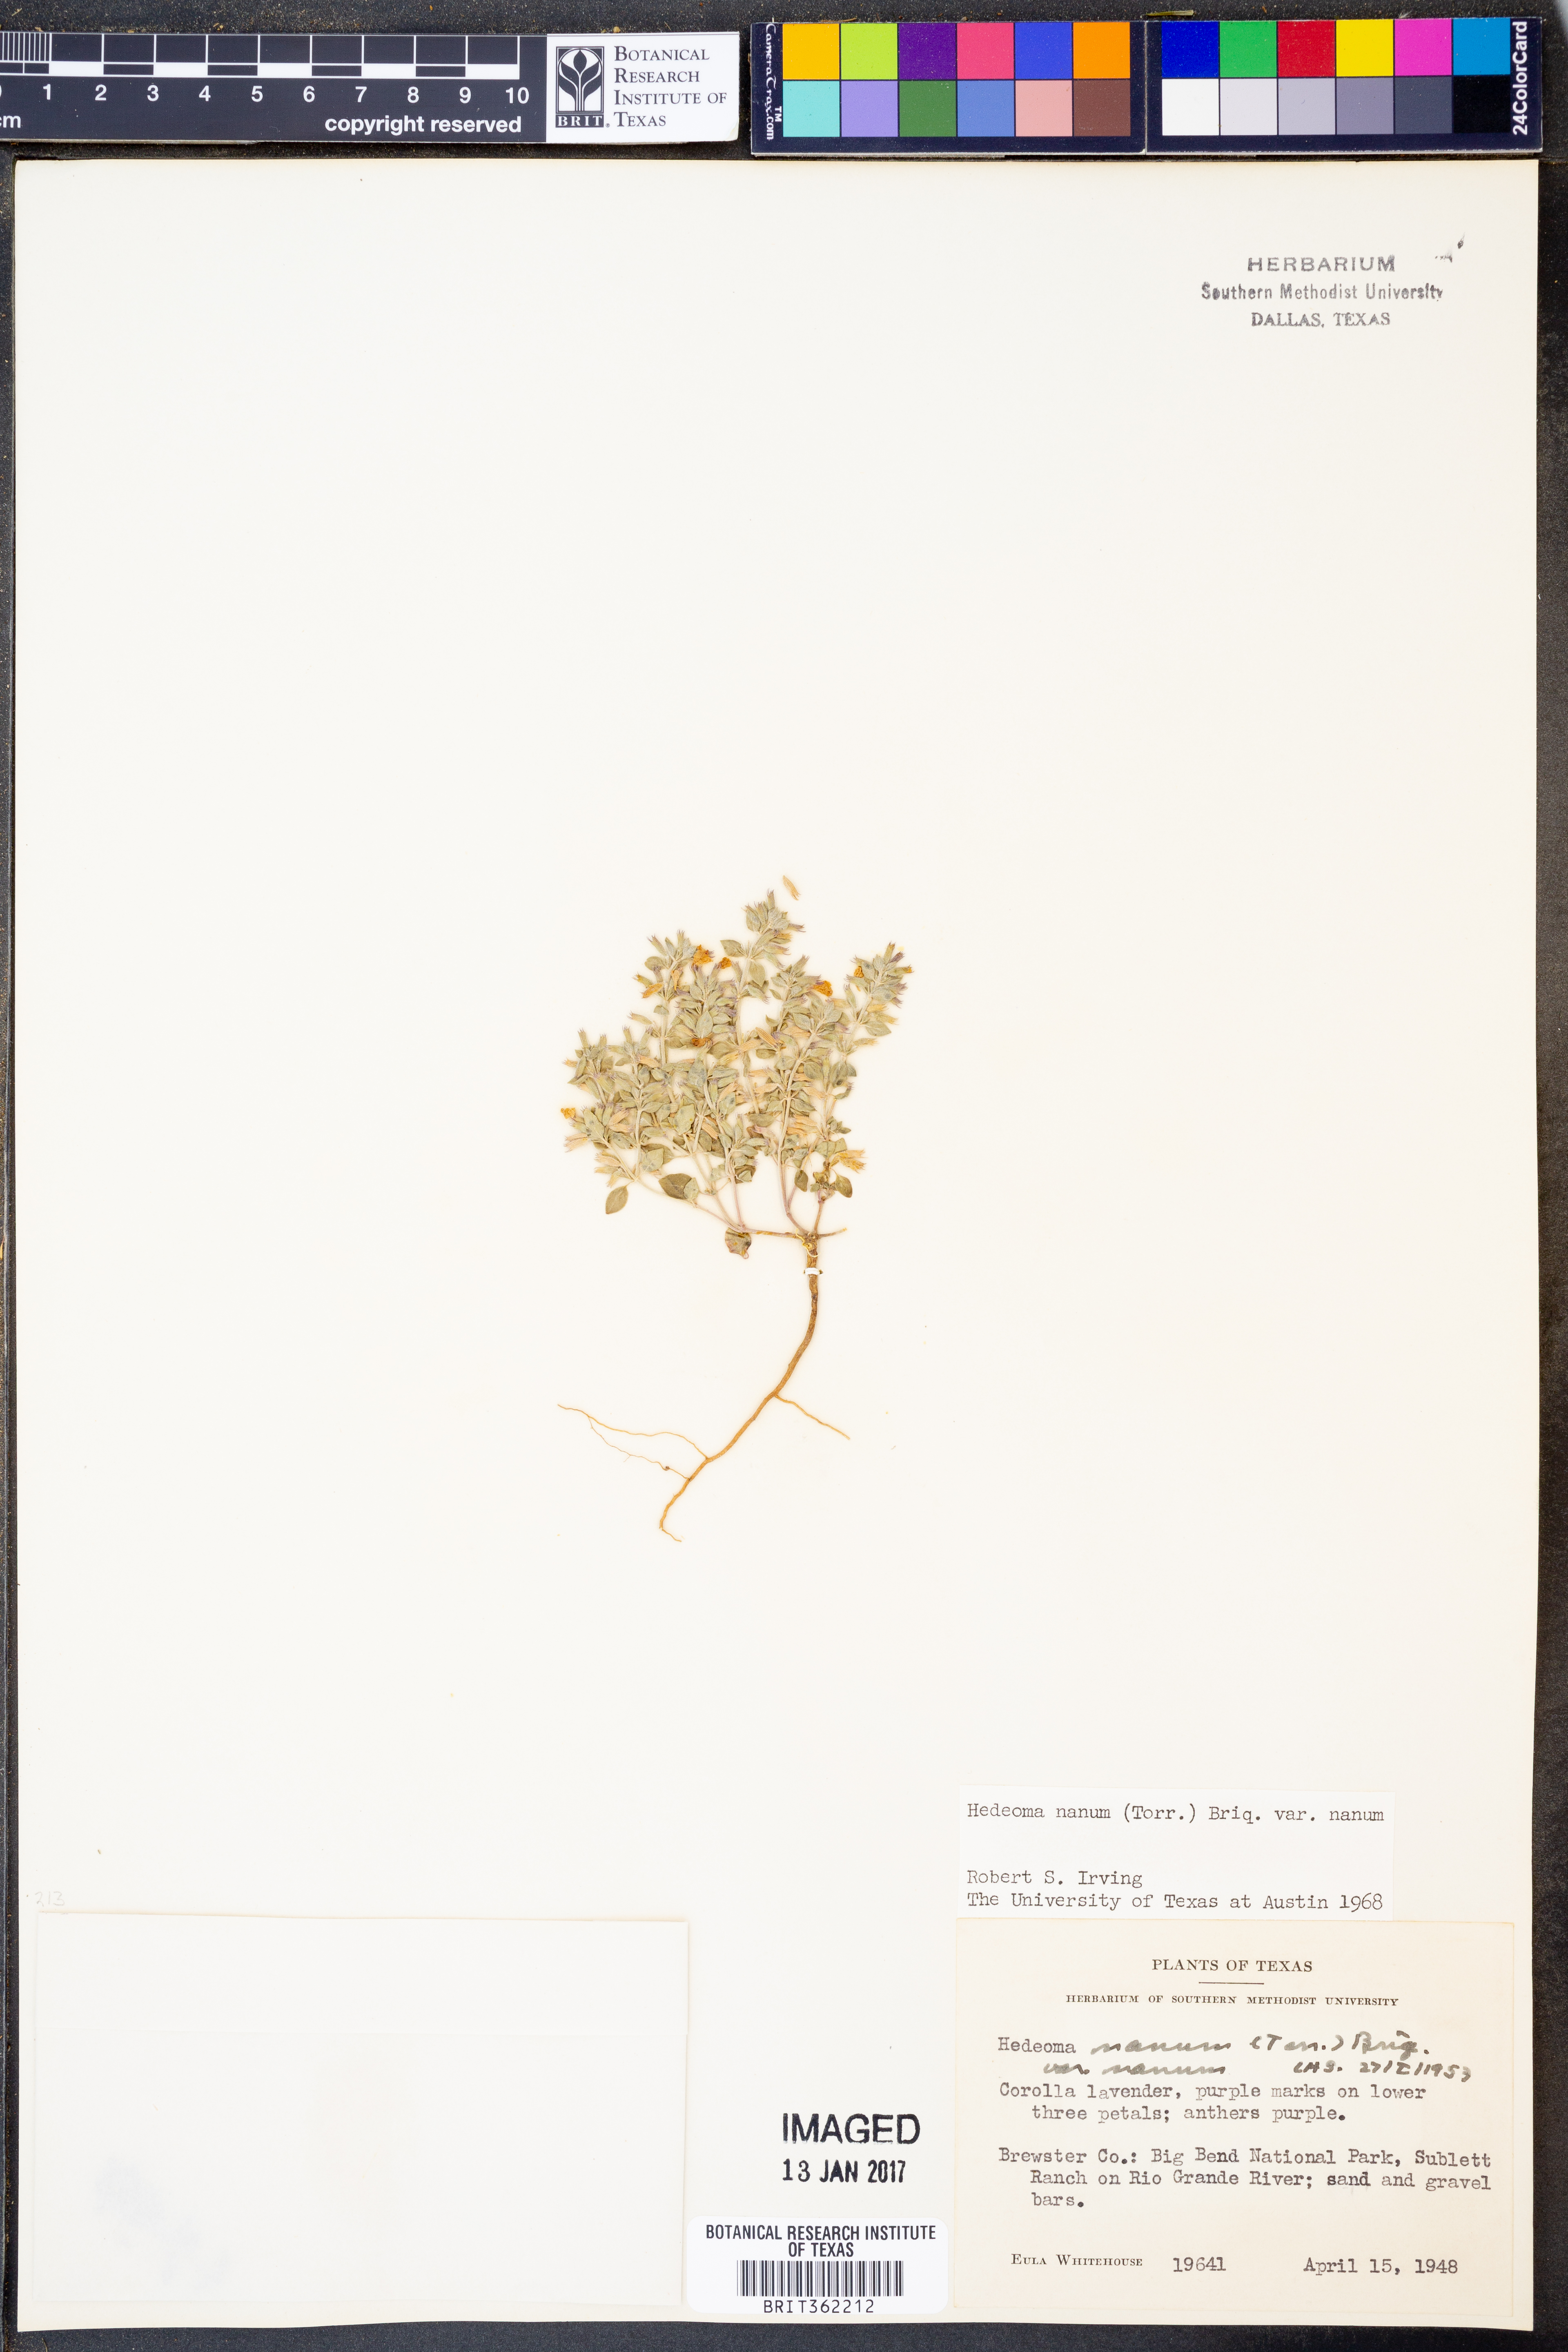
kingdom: Plantae
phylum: Tracheophyta
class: Magnoliopsida
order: Lamiales
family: Lamiaceae
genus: Hedeoma
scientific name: Hedeoma nana
